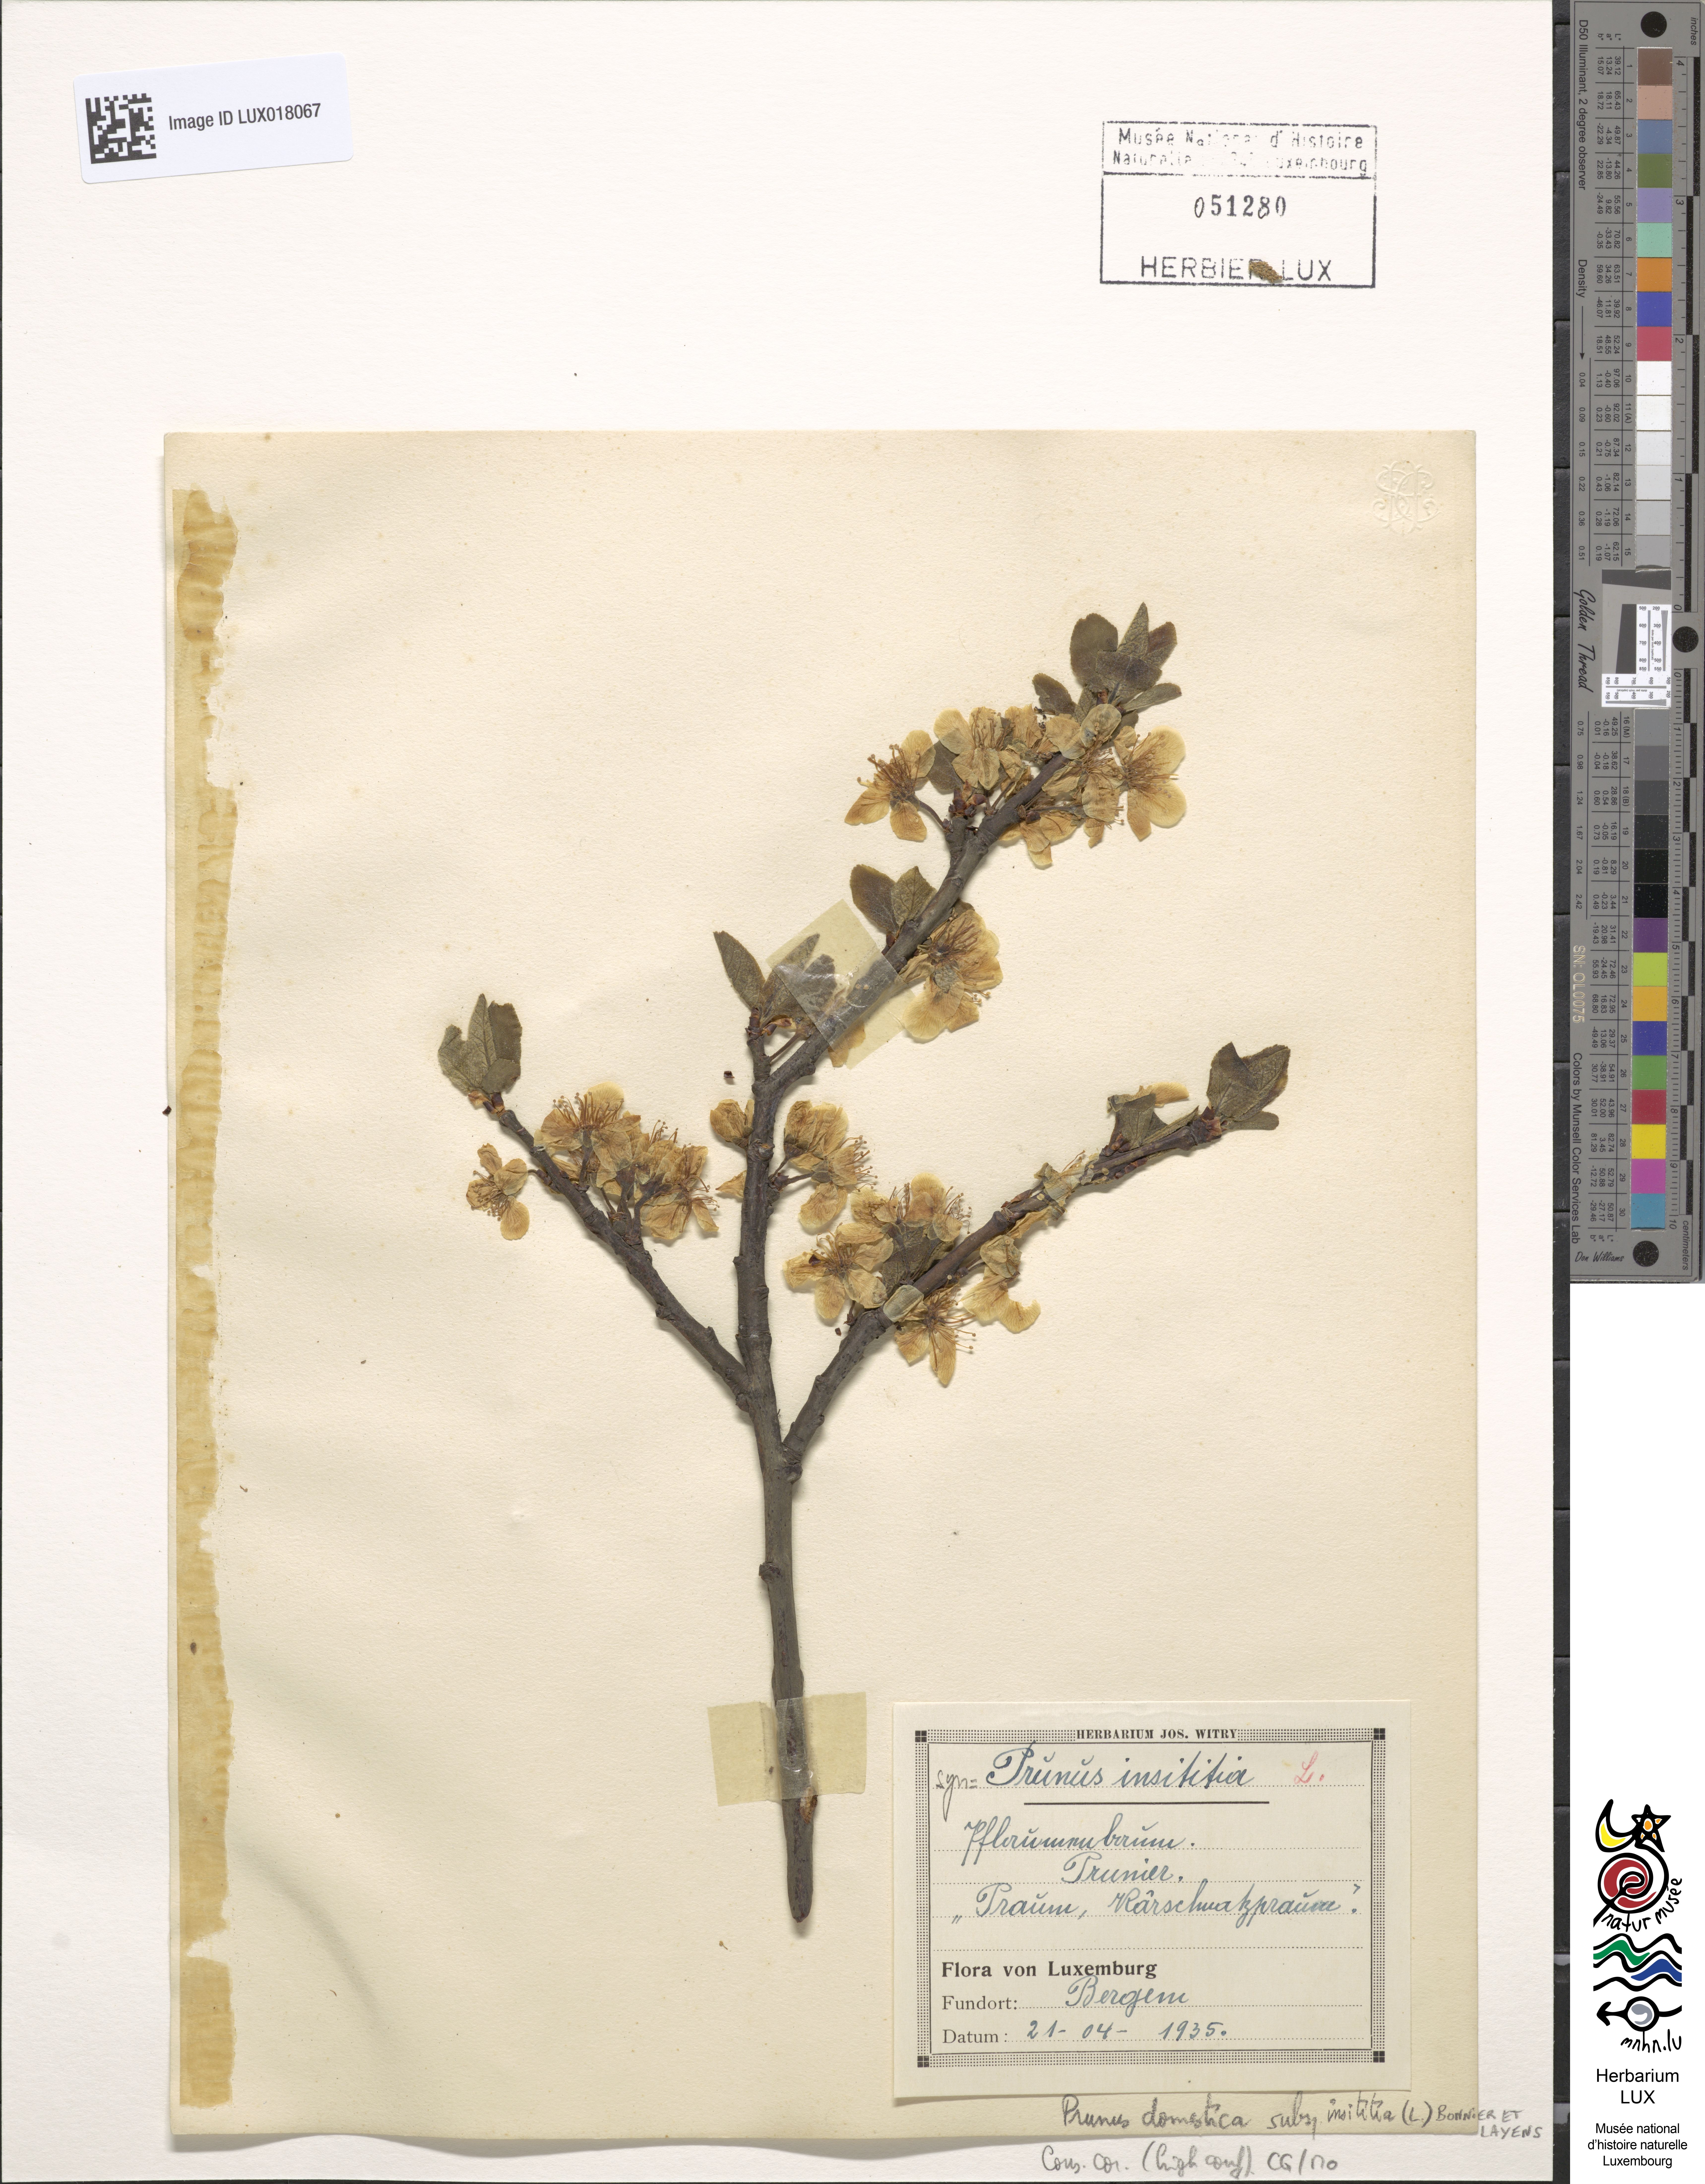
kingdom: Plantae
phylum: Tracheophyta
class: Magnoliopsida
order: Rosales
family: Rosaceae
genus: Prunus
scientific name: Prunus domestica
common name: Wild plum
